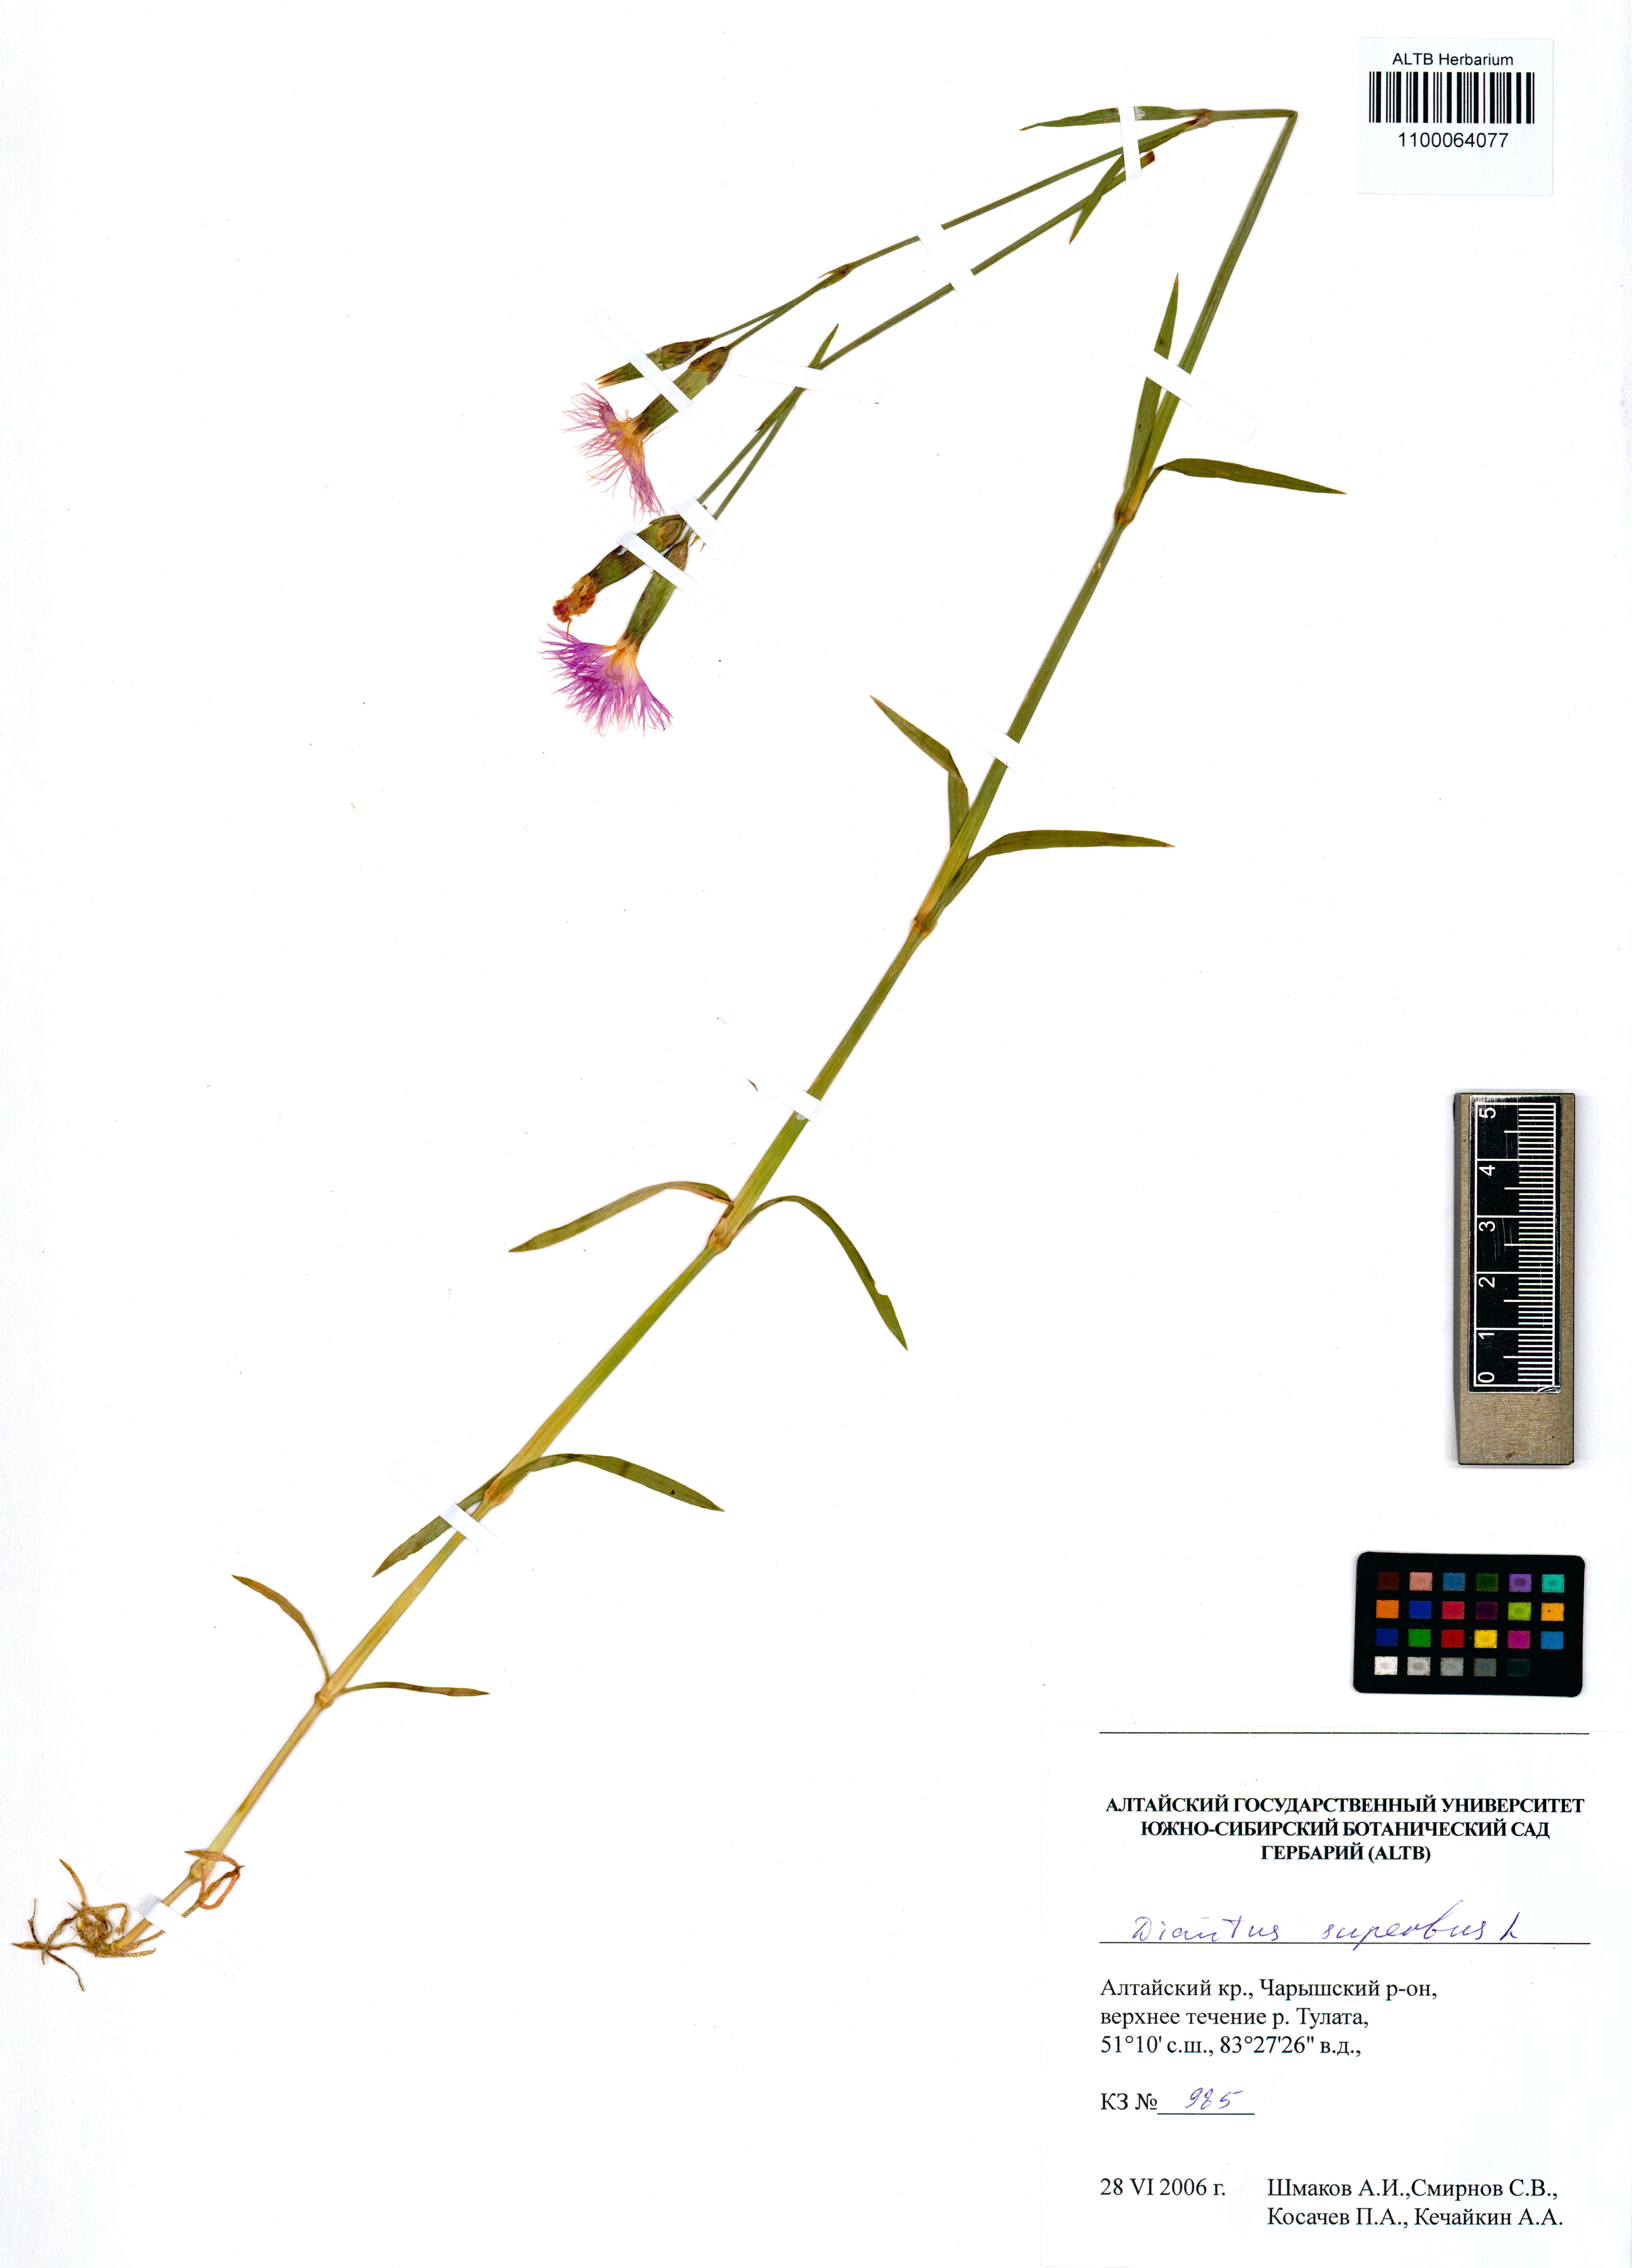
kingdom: Plantae
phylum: Tracheophyta
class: Magnoliopsida
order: Caryophyllales
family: Caryophyllaceae
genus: Dianthus
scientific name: Dianthus superbus
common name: Fringed pink
